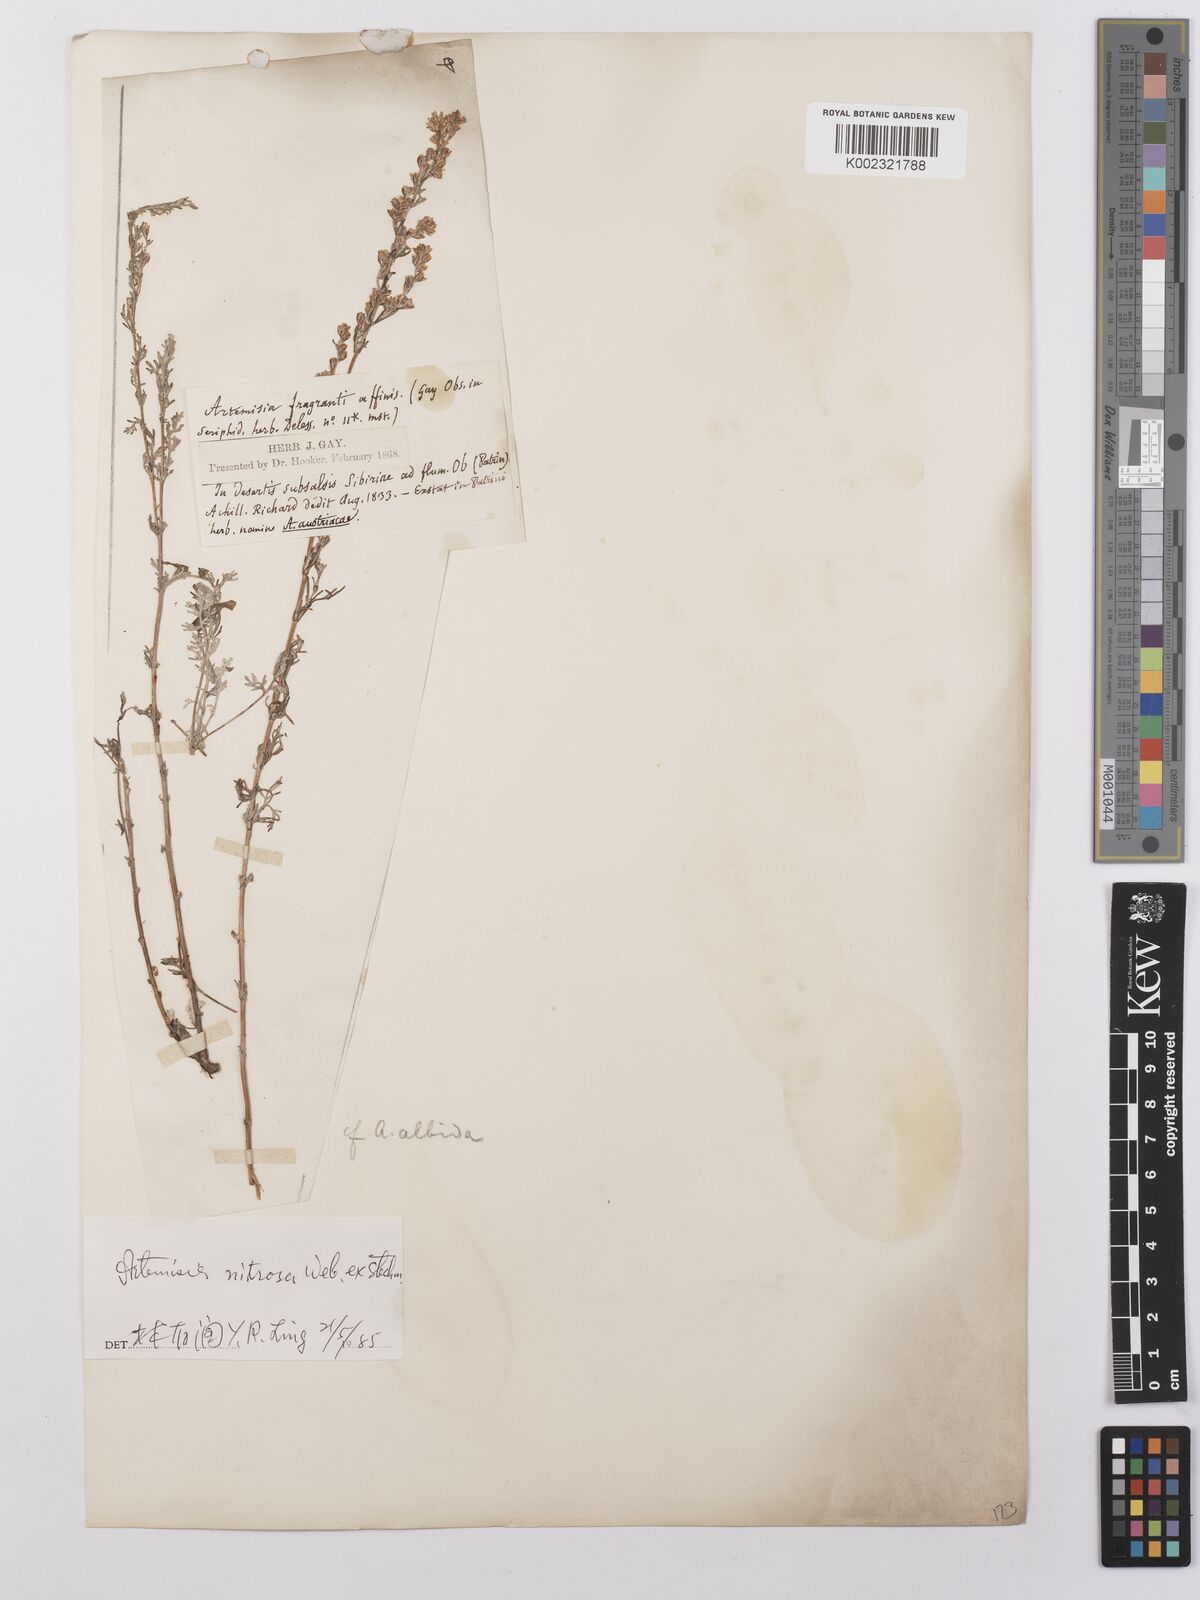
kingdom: Plantae
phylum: Tracheophyta
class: Magnoliopsida
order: Asterales
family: Asteraceae
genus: Artemisia
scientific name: Artemisia nitrosa
